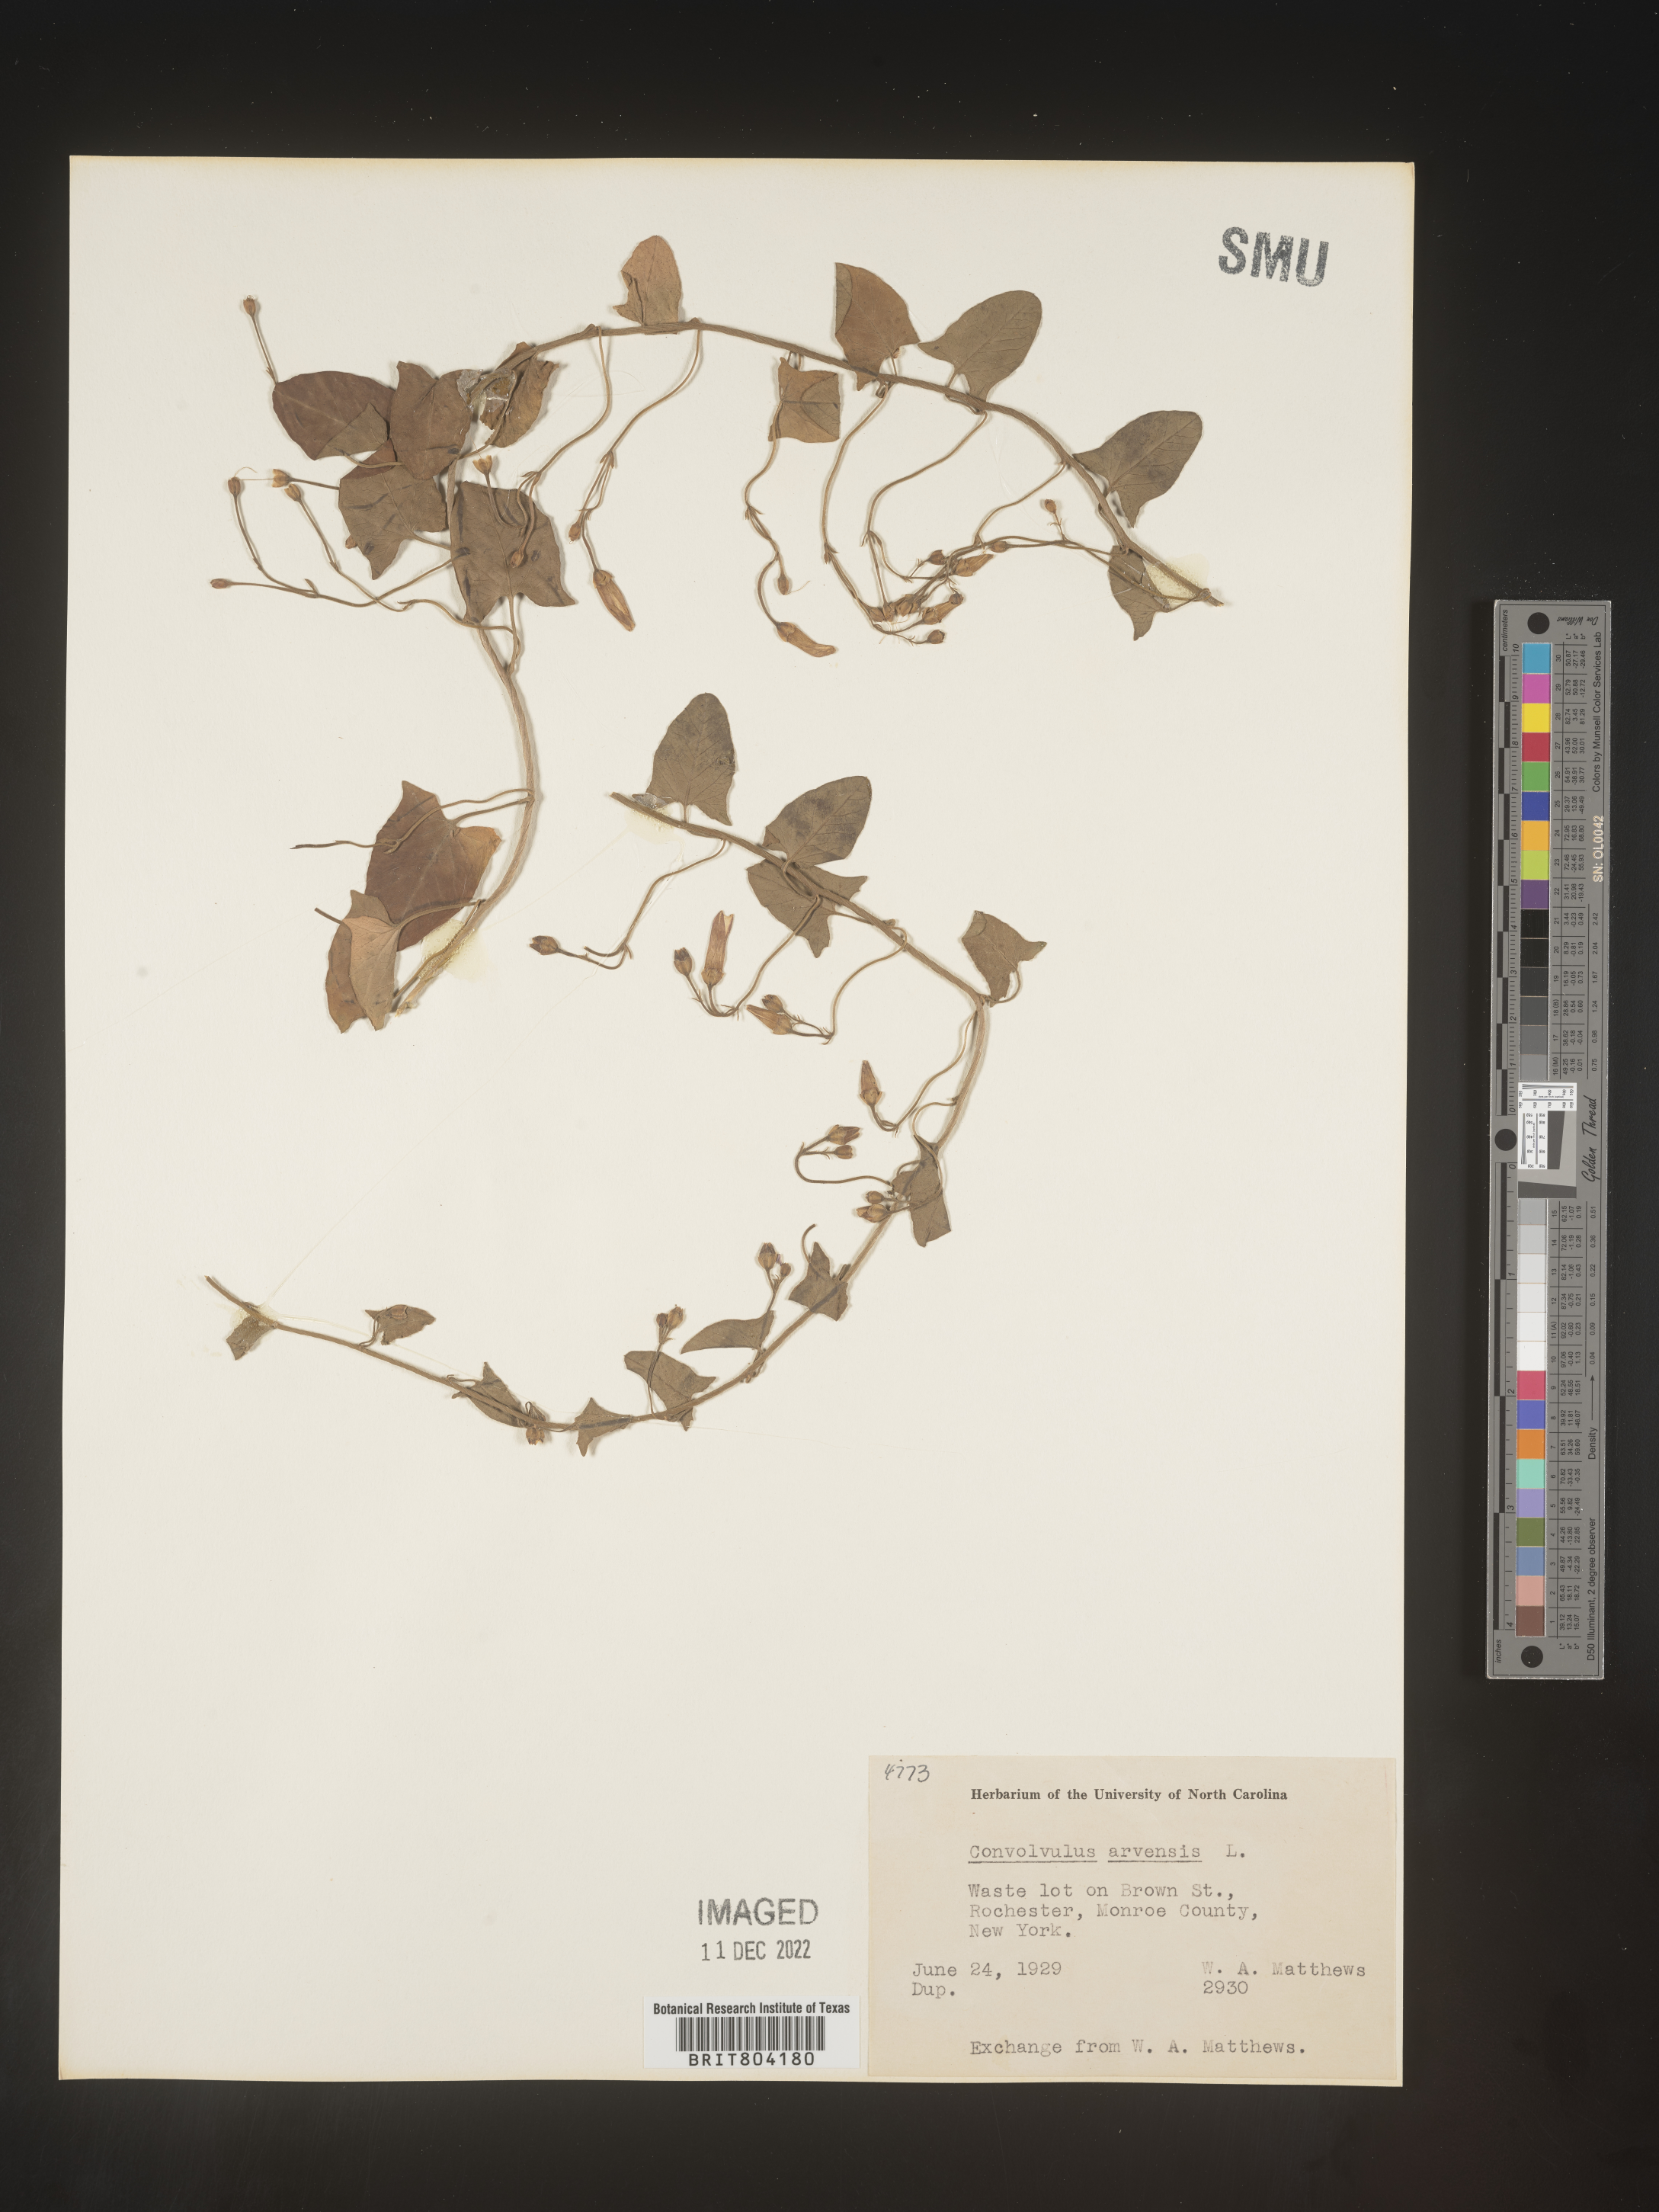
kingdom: Plantae
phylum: Tracheophyta
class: Magnoliopsida
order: Solanales
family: Convolvulaceae
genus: Convolvulus
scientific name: Convolvulus arvensis
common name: Field bindweed
